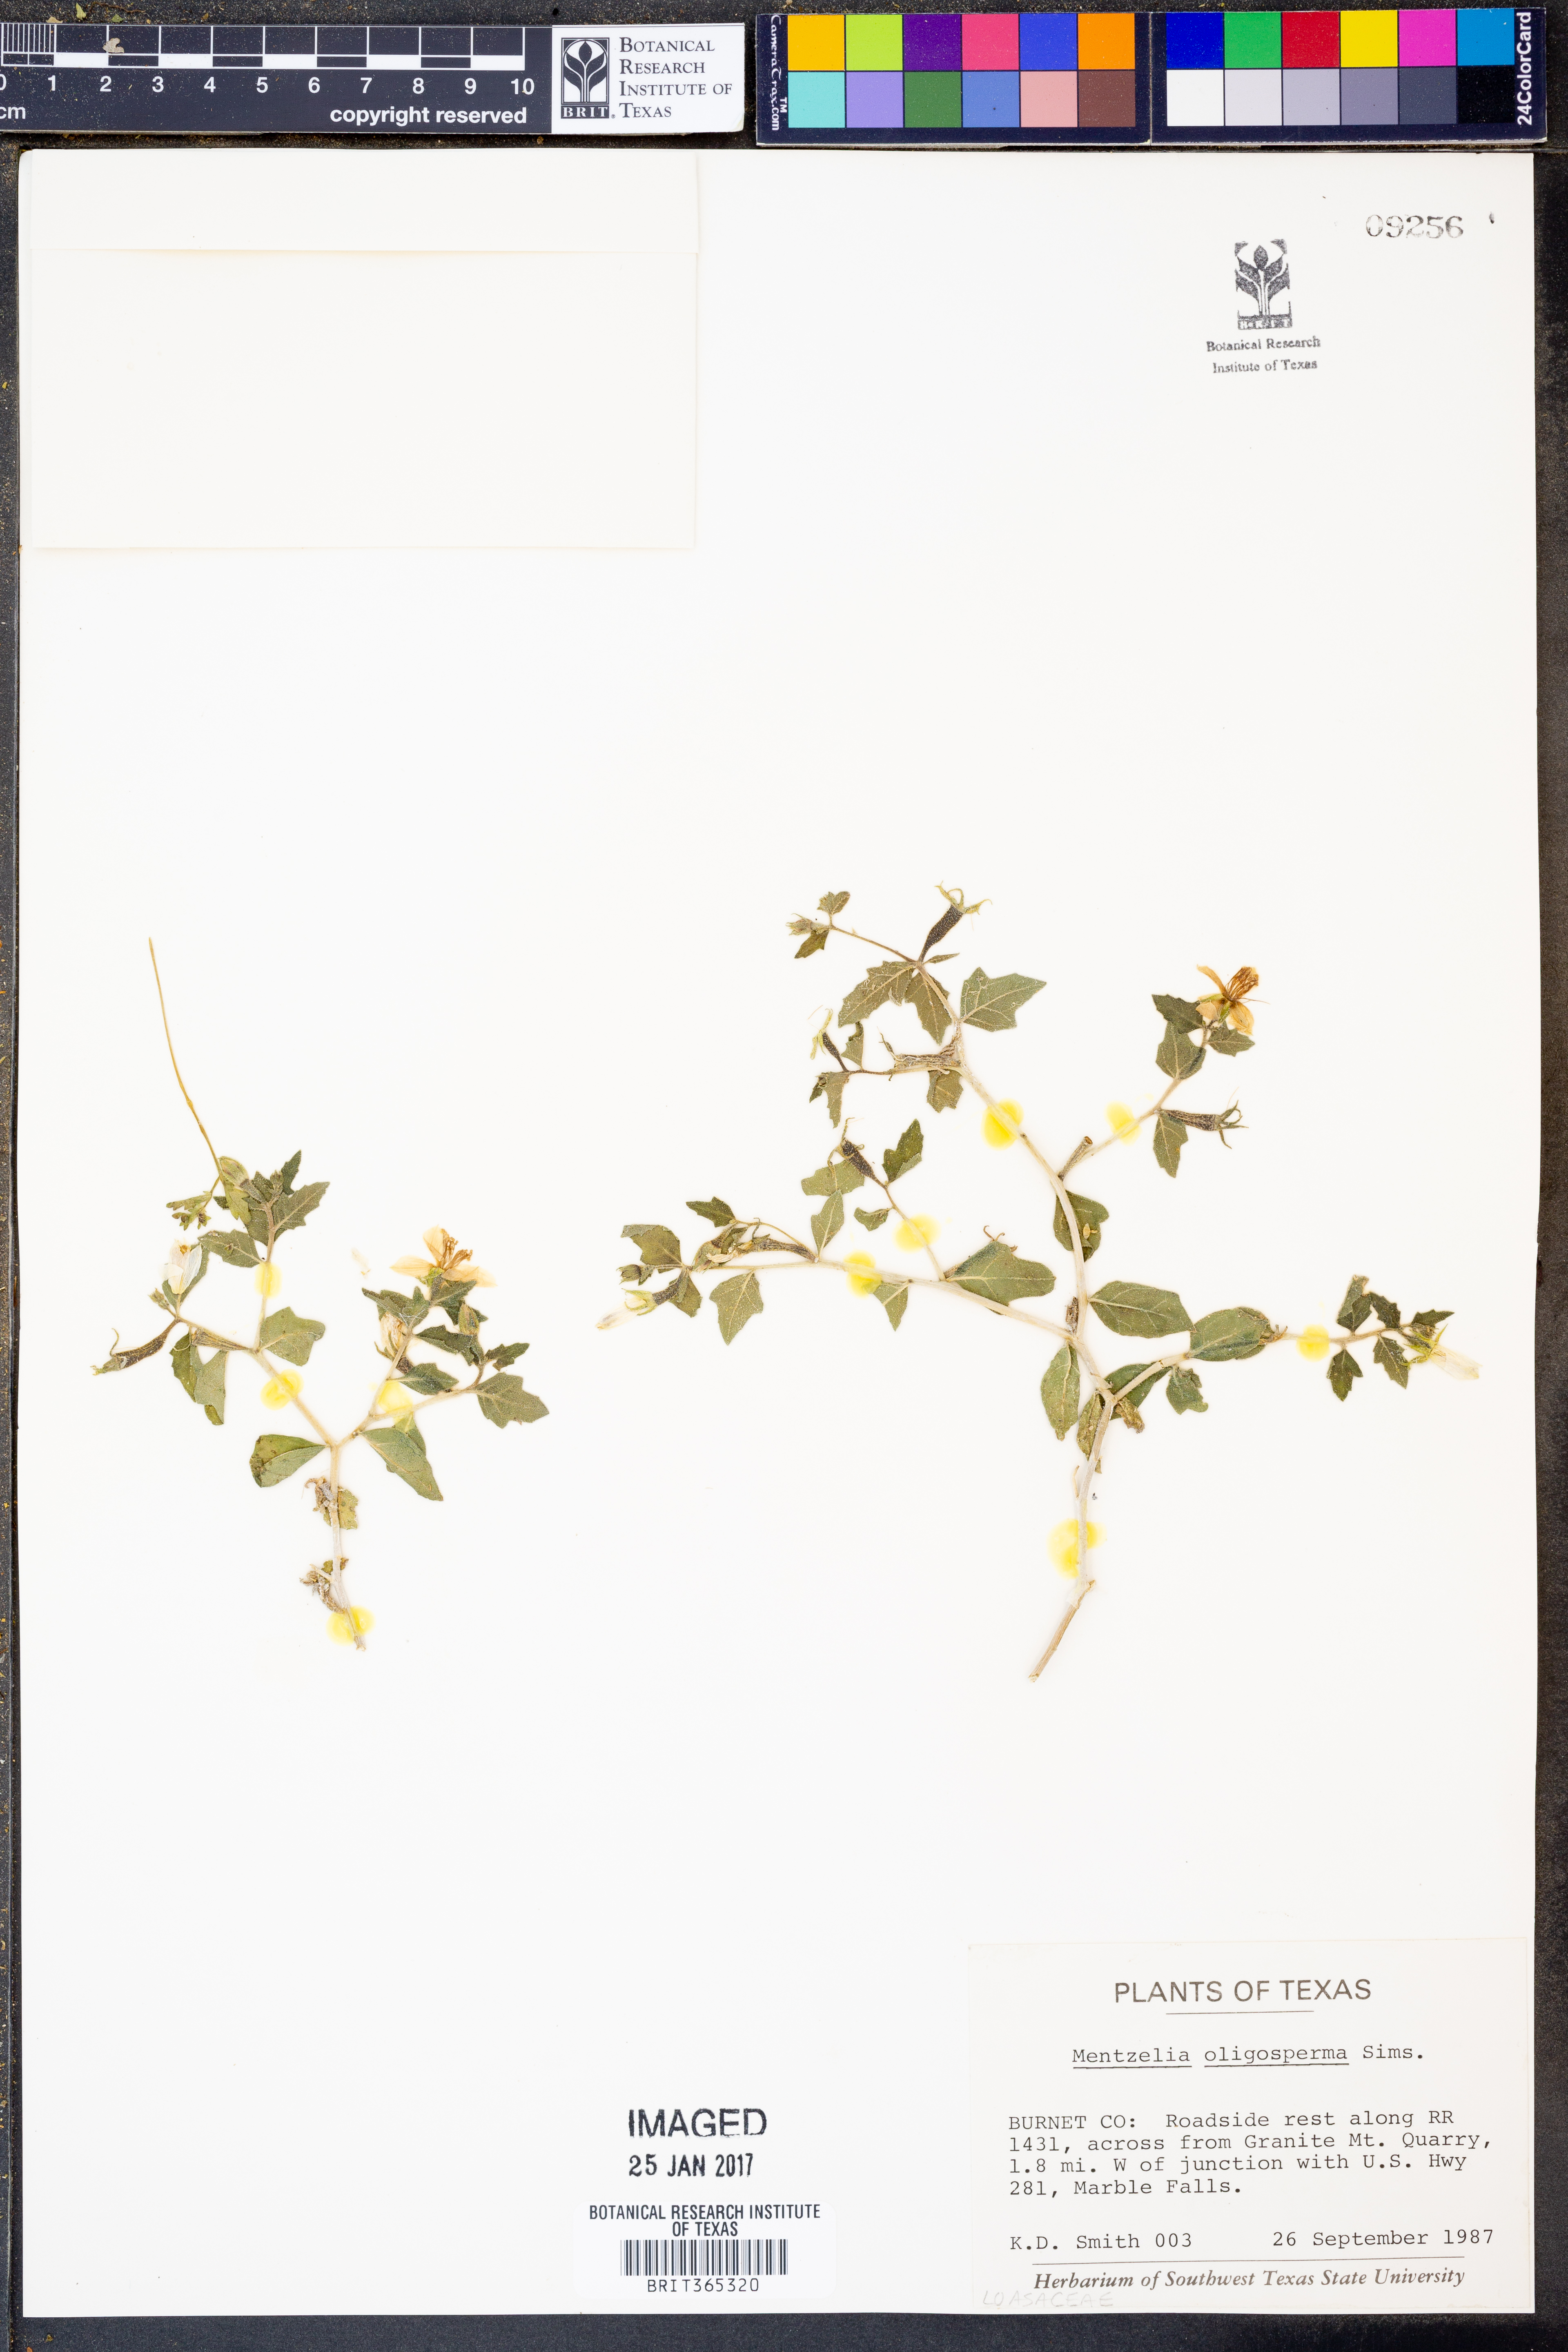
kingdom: Plantae
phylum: Tracheophyta
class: Magnoliopsida
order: Cornales
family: Loasaceae
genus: Mentzelia
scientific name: Mentzelia oligosperma
